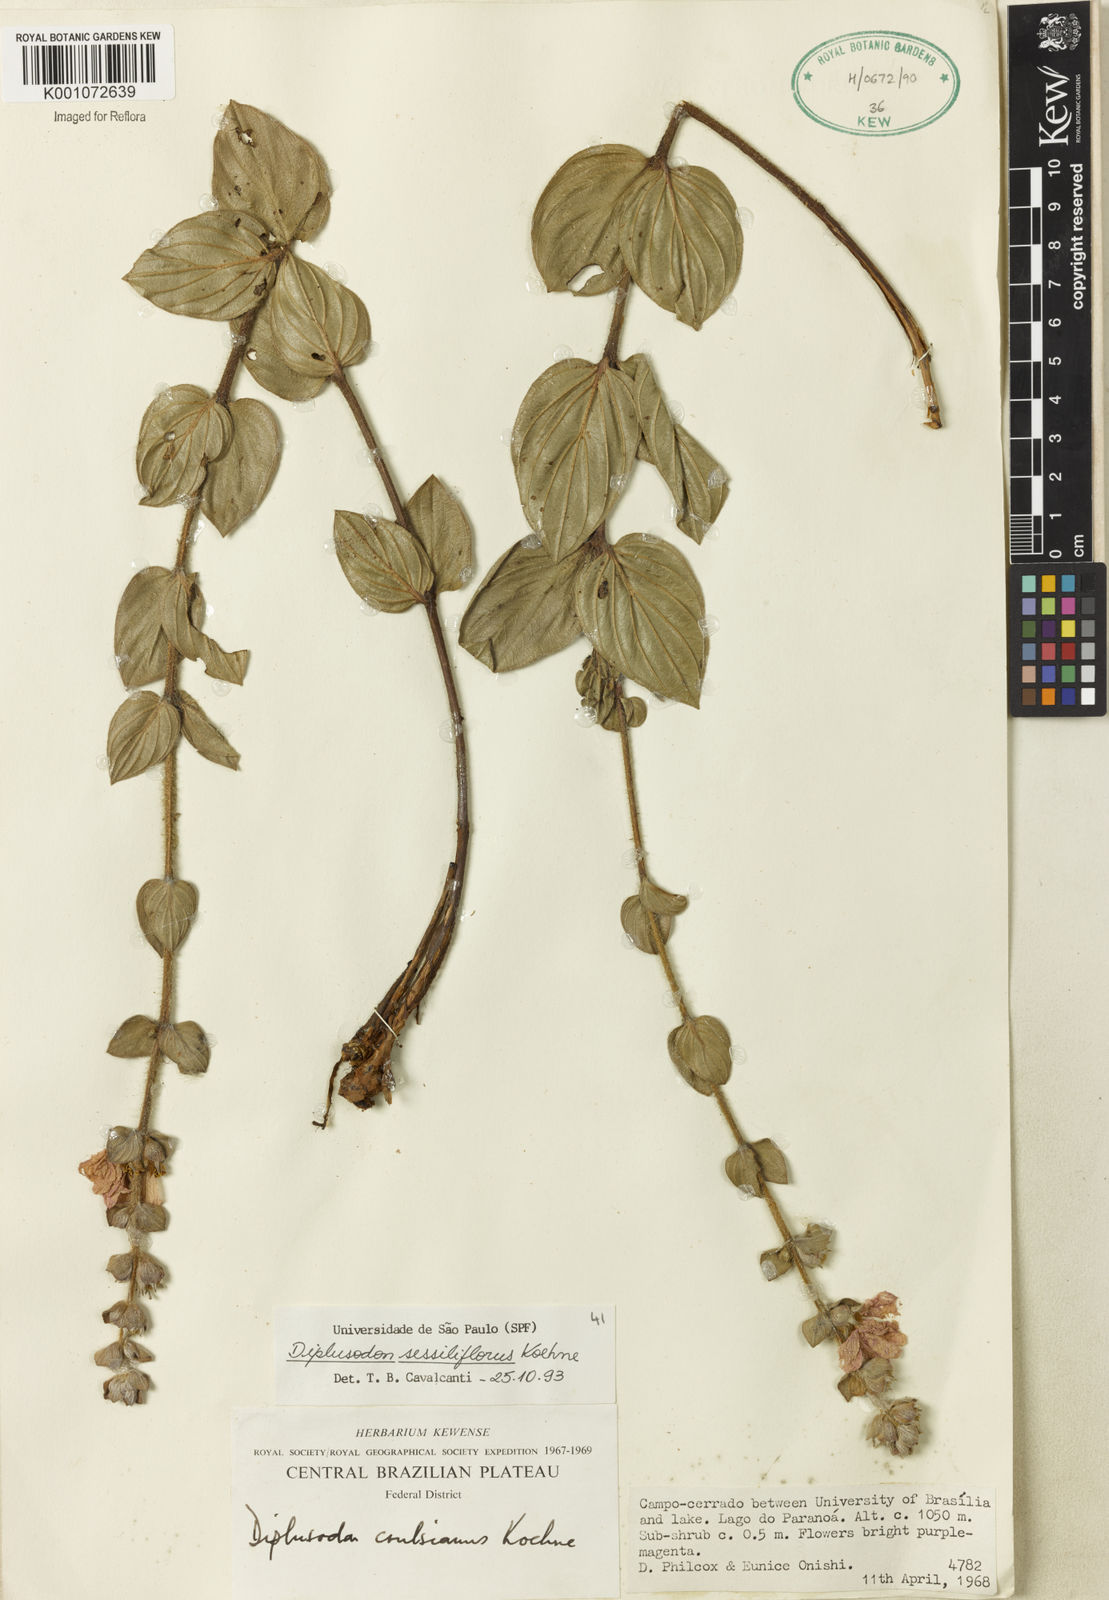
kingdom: Plantae
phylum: Tracheophyta
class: Magnoliopsida
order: Myrtales
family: Lythraceae
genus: Diplusodon
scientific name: Diplusodon sessiliflorus
